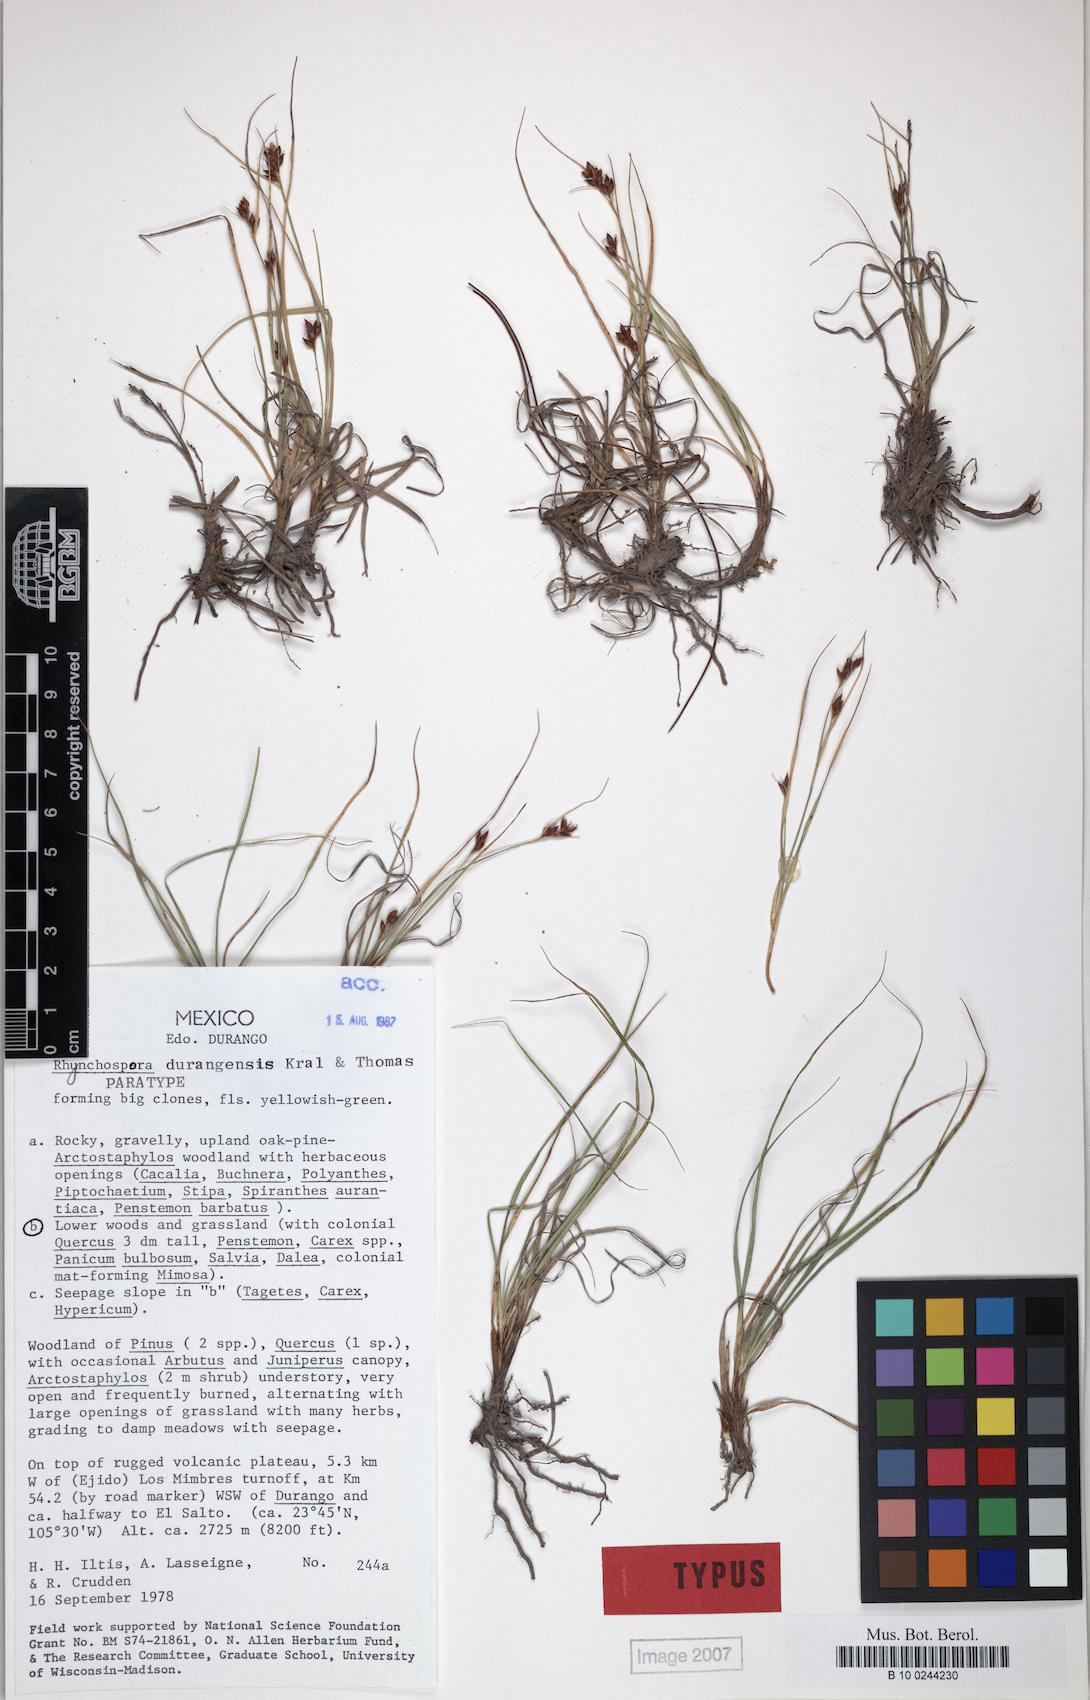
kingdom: Plantae
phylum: Tracheophyta
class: Liliopsida
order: Poales
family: Cyperaceae
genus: Rhynchospora
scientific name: Rhynchospora durangensis
